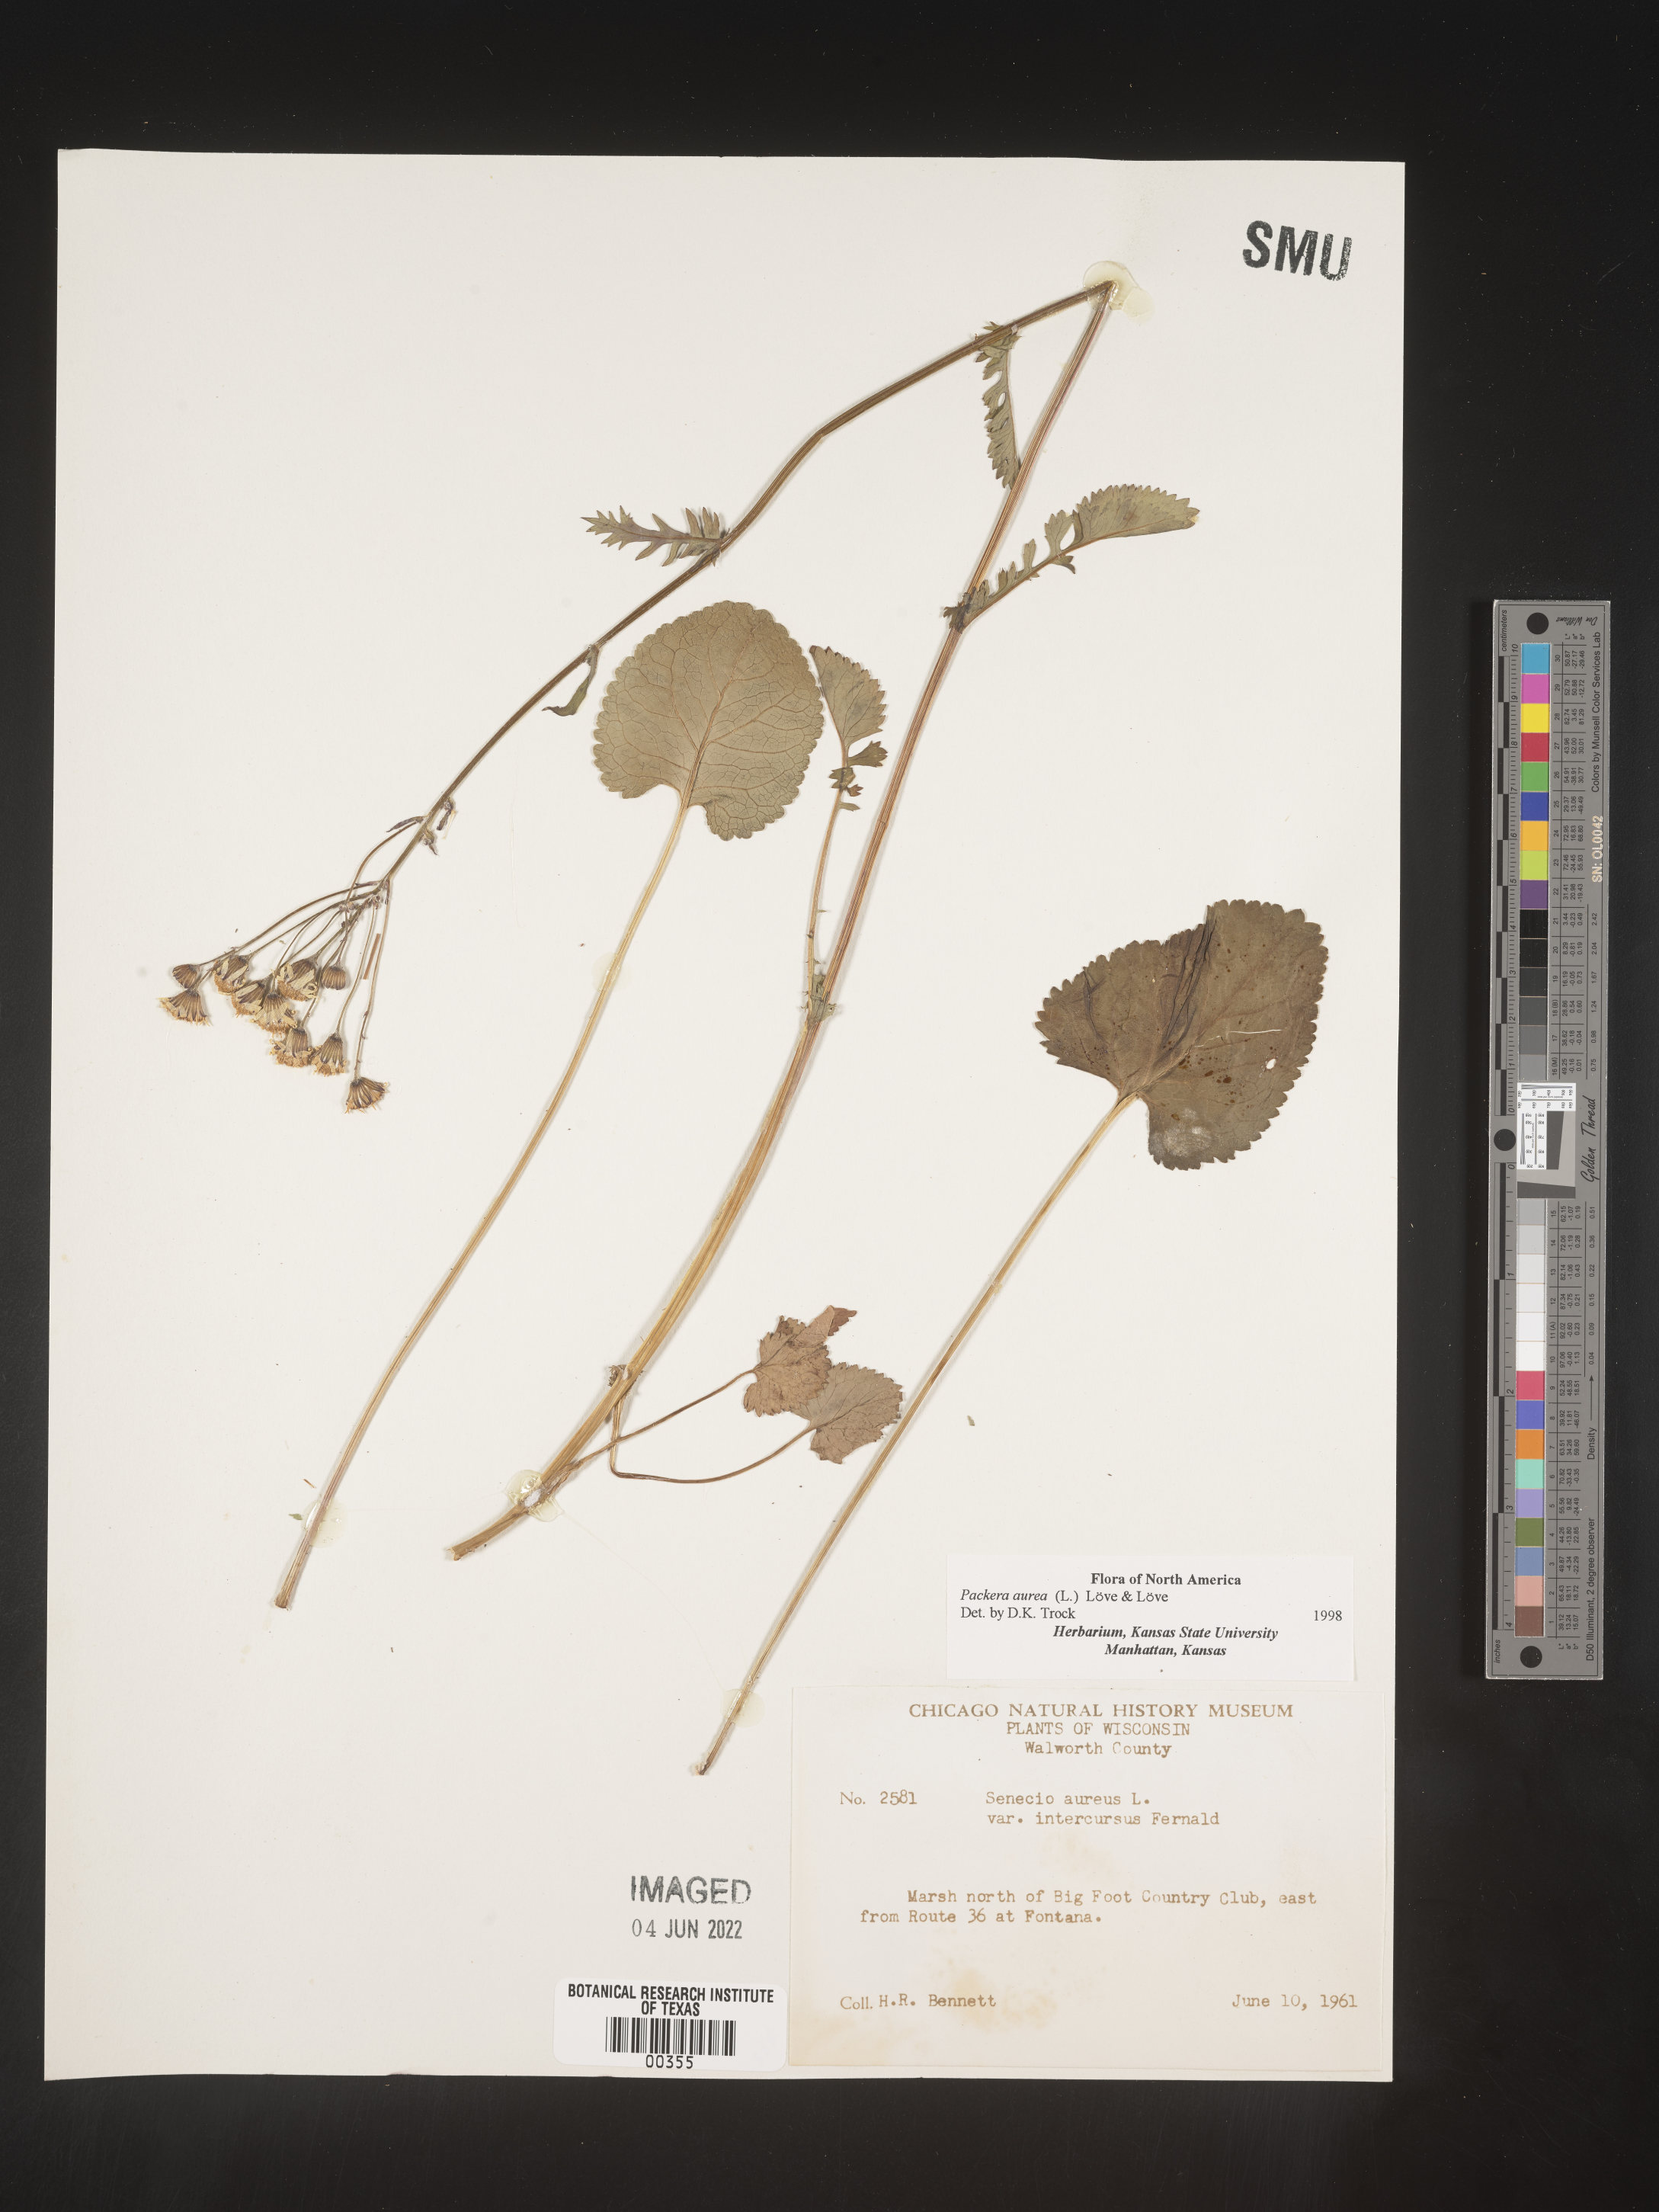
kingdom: Plantae
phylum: Tracheophyta
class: Magnoliopsida
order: Asterales
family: Asteraceae
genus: Packera
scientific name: Packera aurea
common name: Golden groundsel
